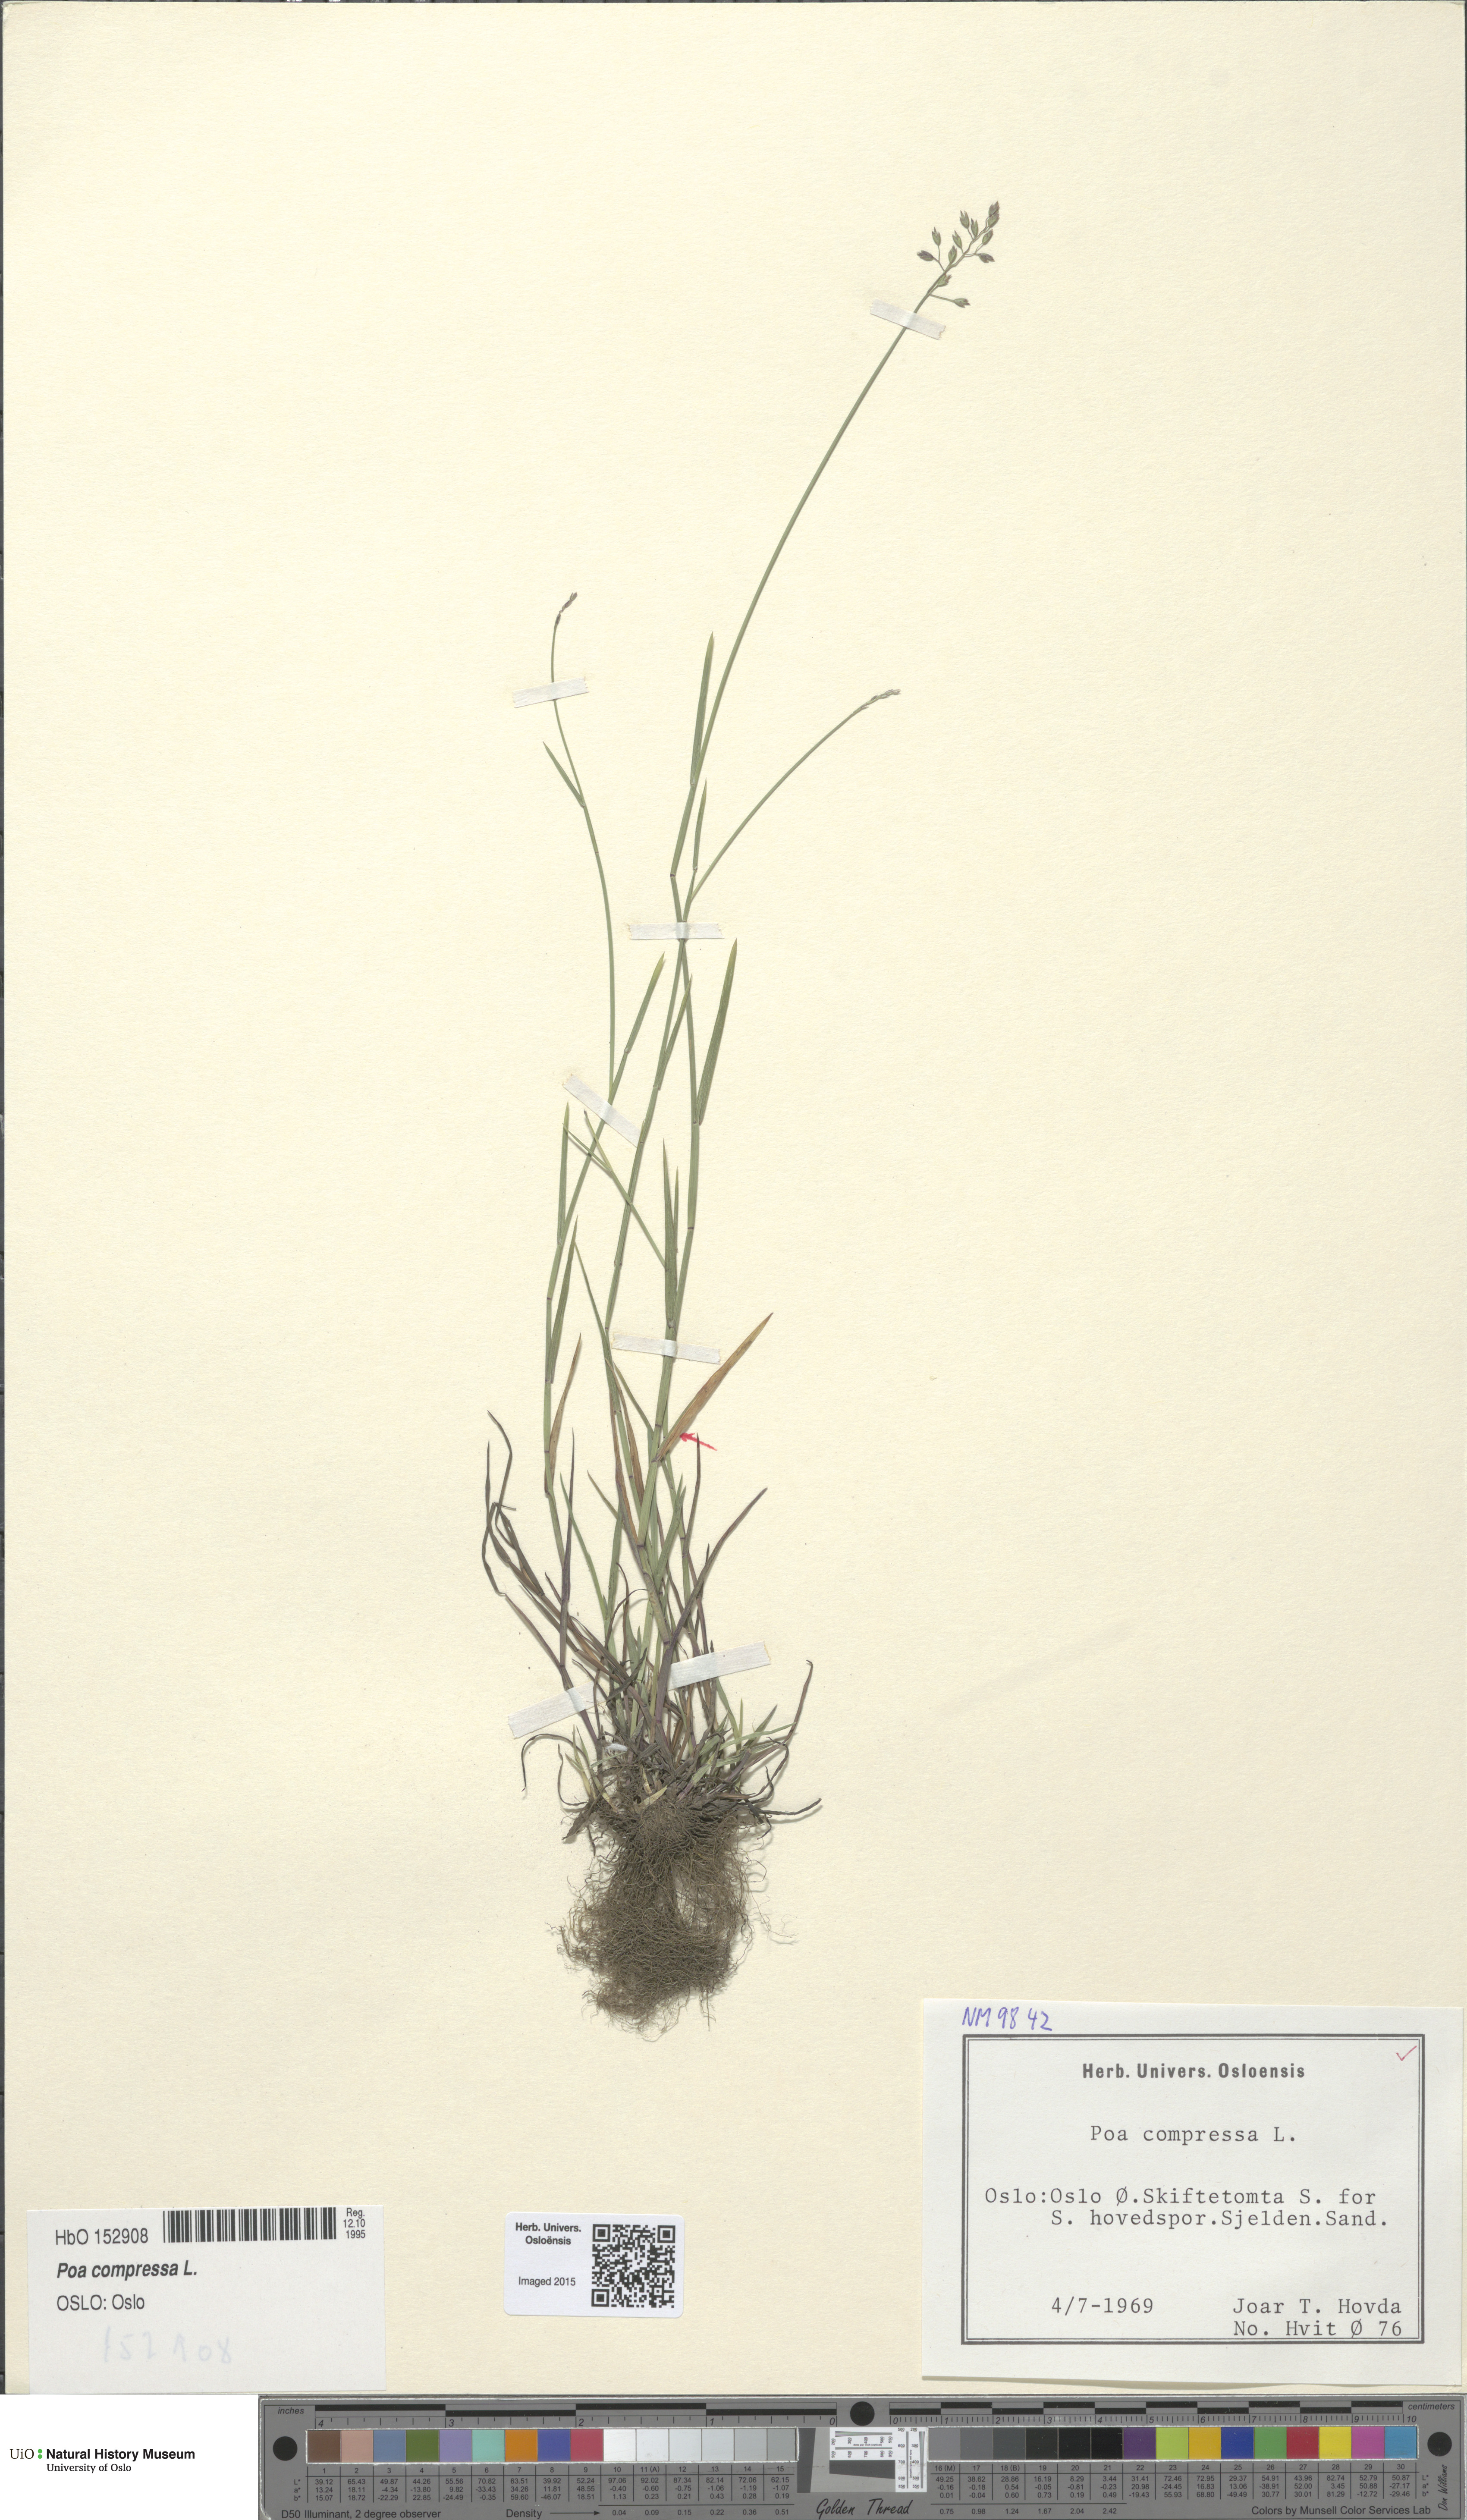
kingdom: Plantae
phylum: Tracheophyta
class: Liliopsida
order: Poales
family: Poaceae
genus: Poa
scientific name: Poa compressa
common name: Canada bluegrass
